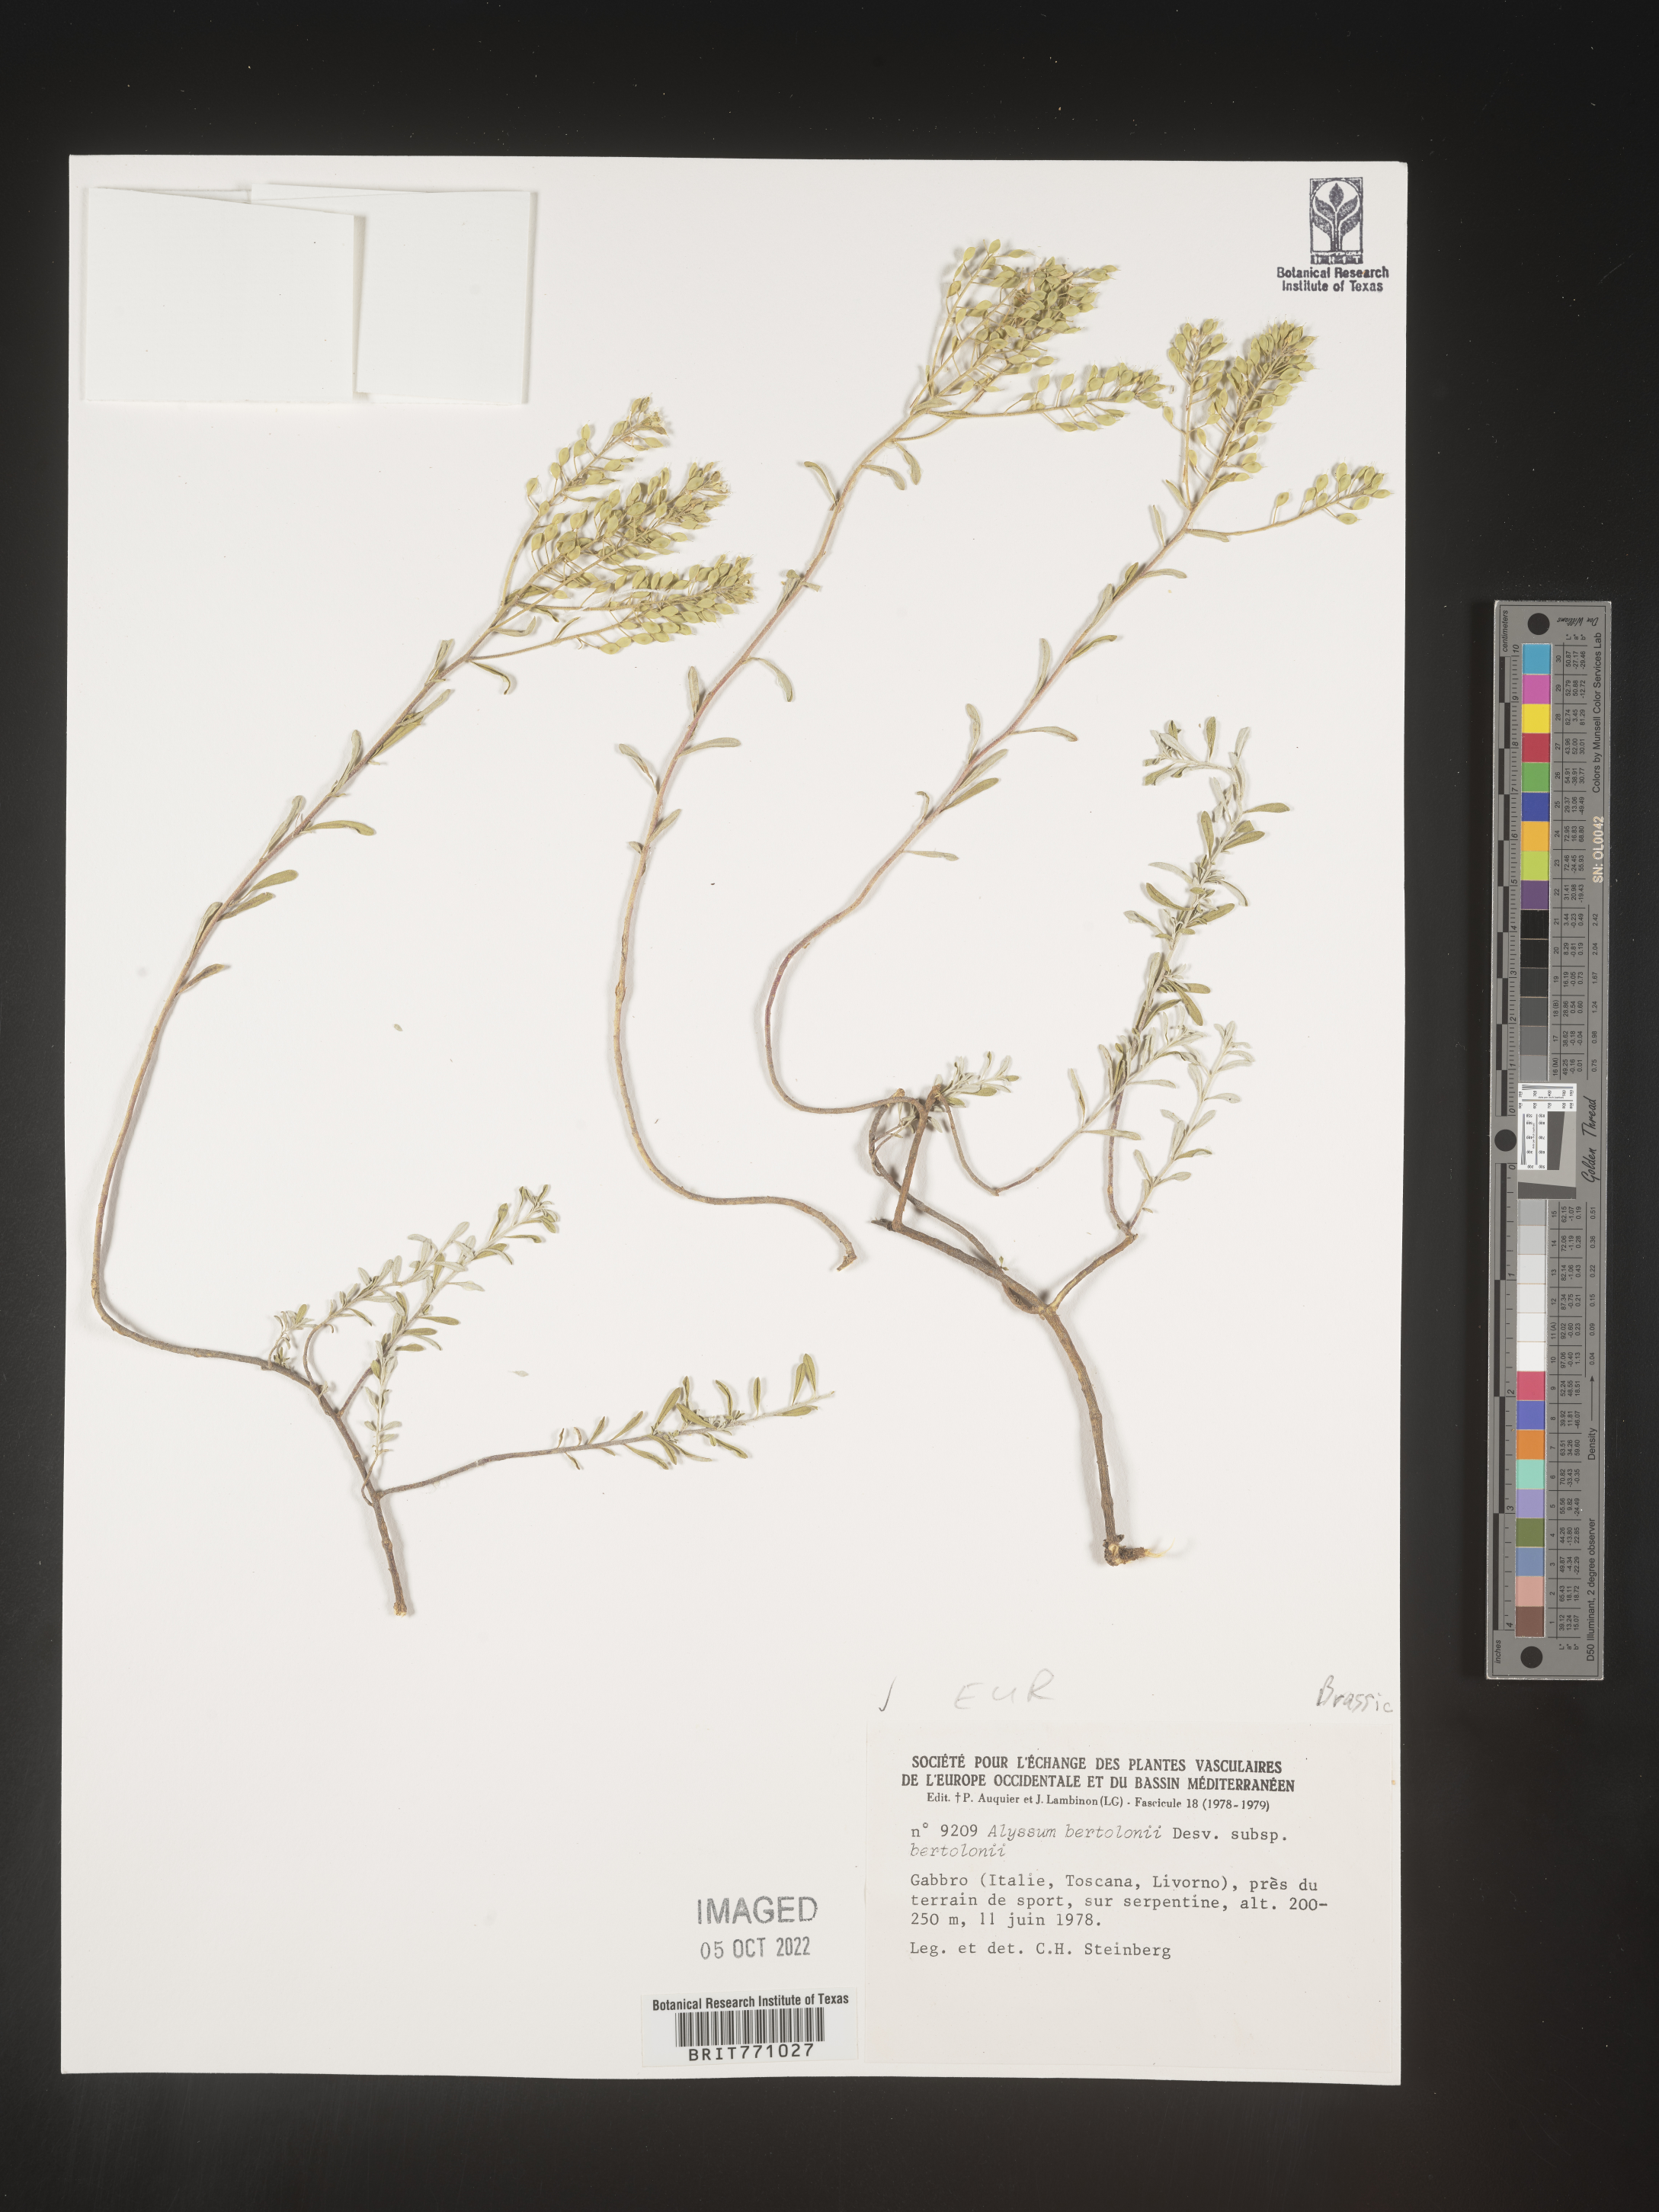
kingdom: Plantae
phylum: Tracheophyta
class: Magnoliopsida
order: Brassicales
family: Brassicaceae
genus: Alyssum
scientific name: Alyssum
